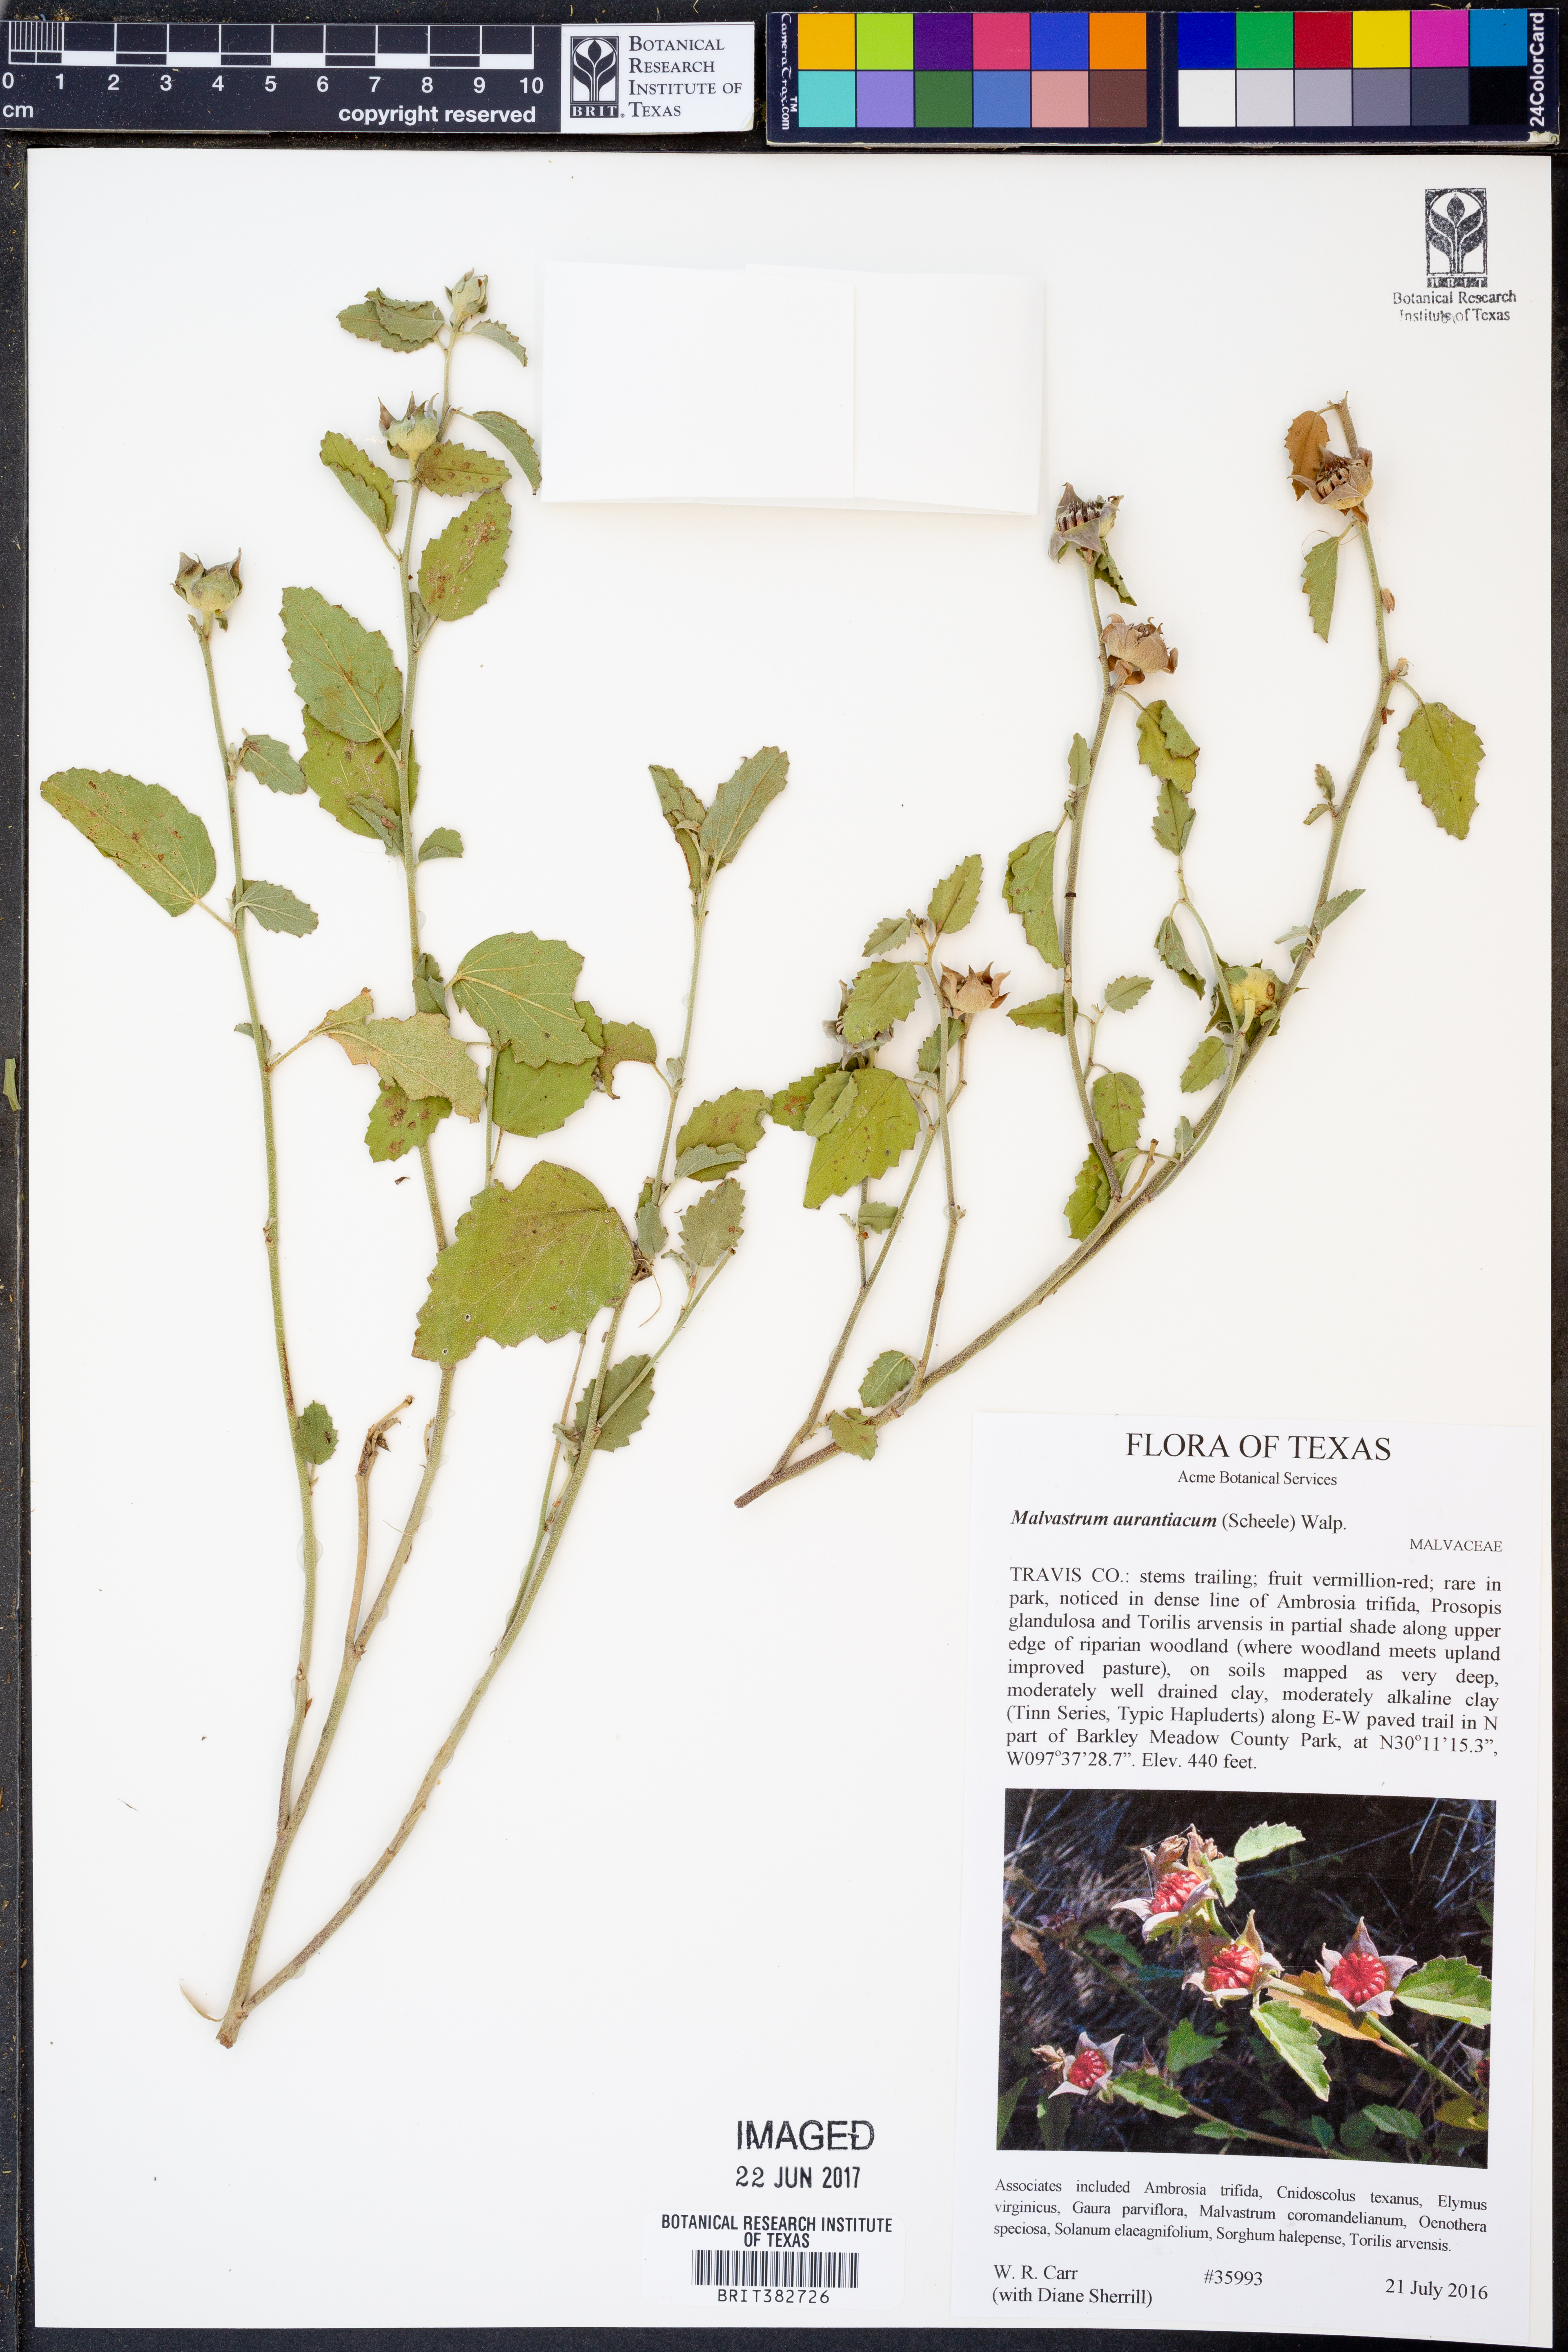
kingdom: Plantae
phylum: Tracheophyta
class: Magnoliopsida
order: Malvales
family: Malvaceae
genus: Malvastrum
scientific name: Malvastrum aurantiacum
